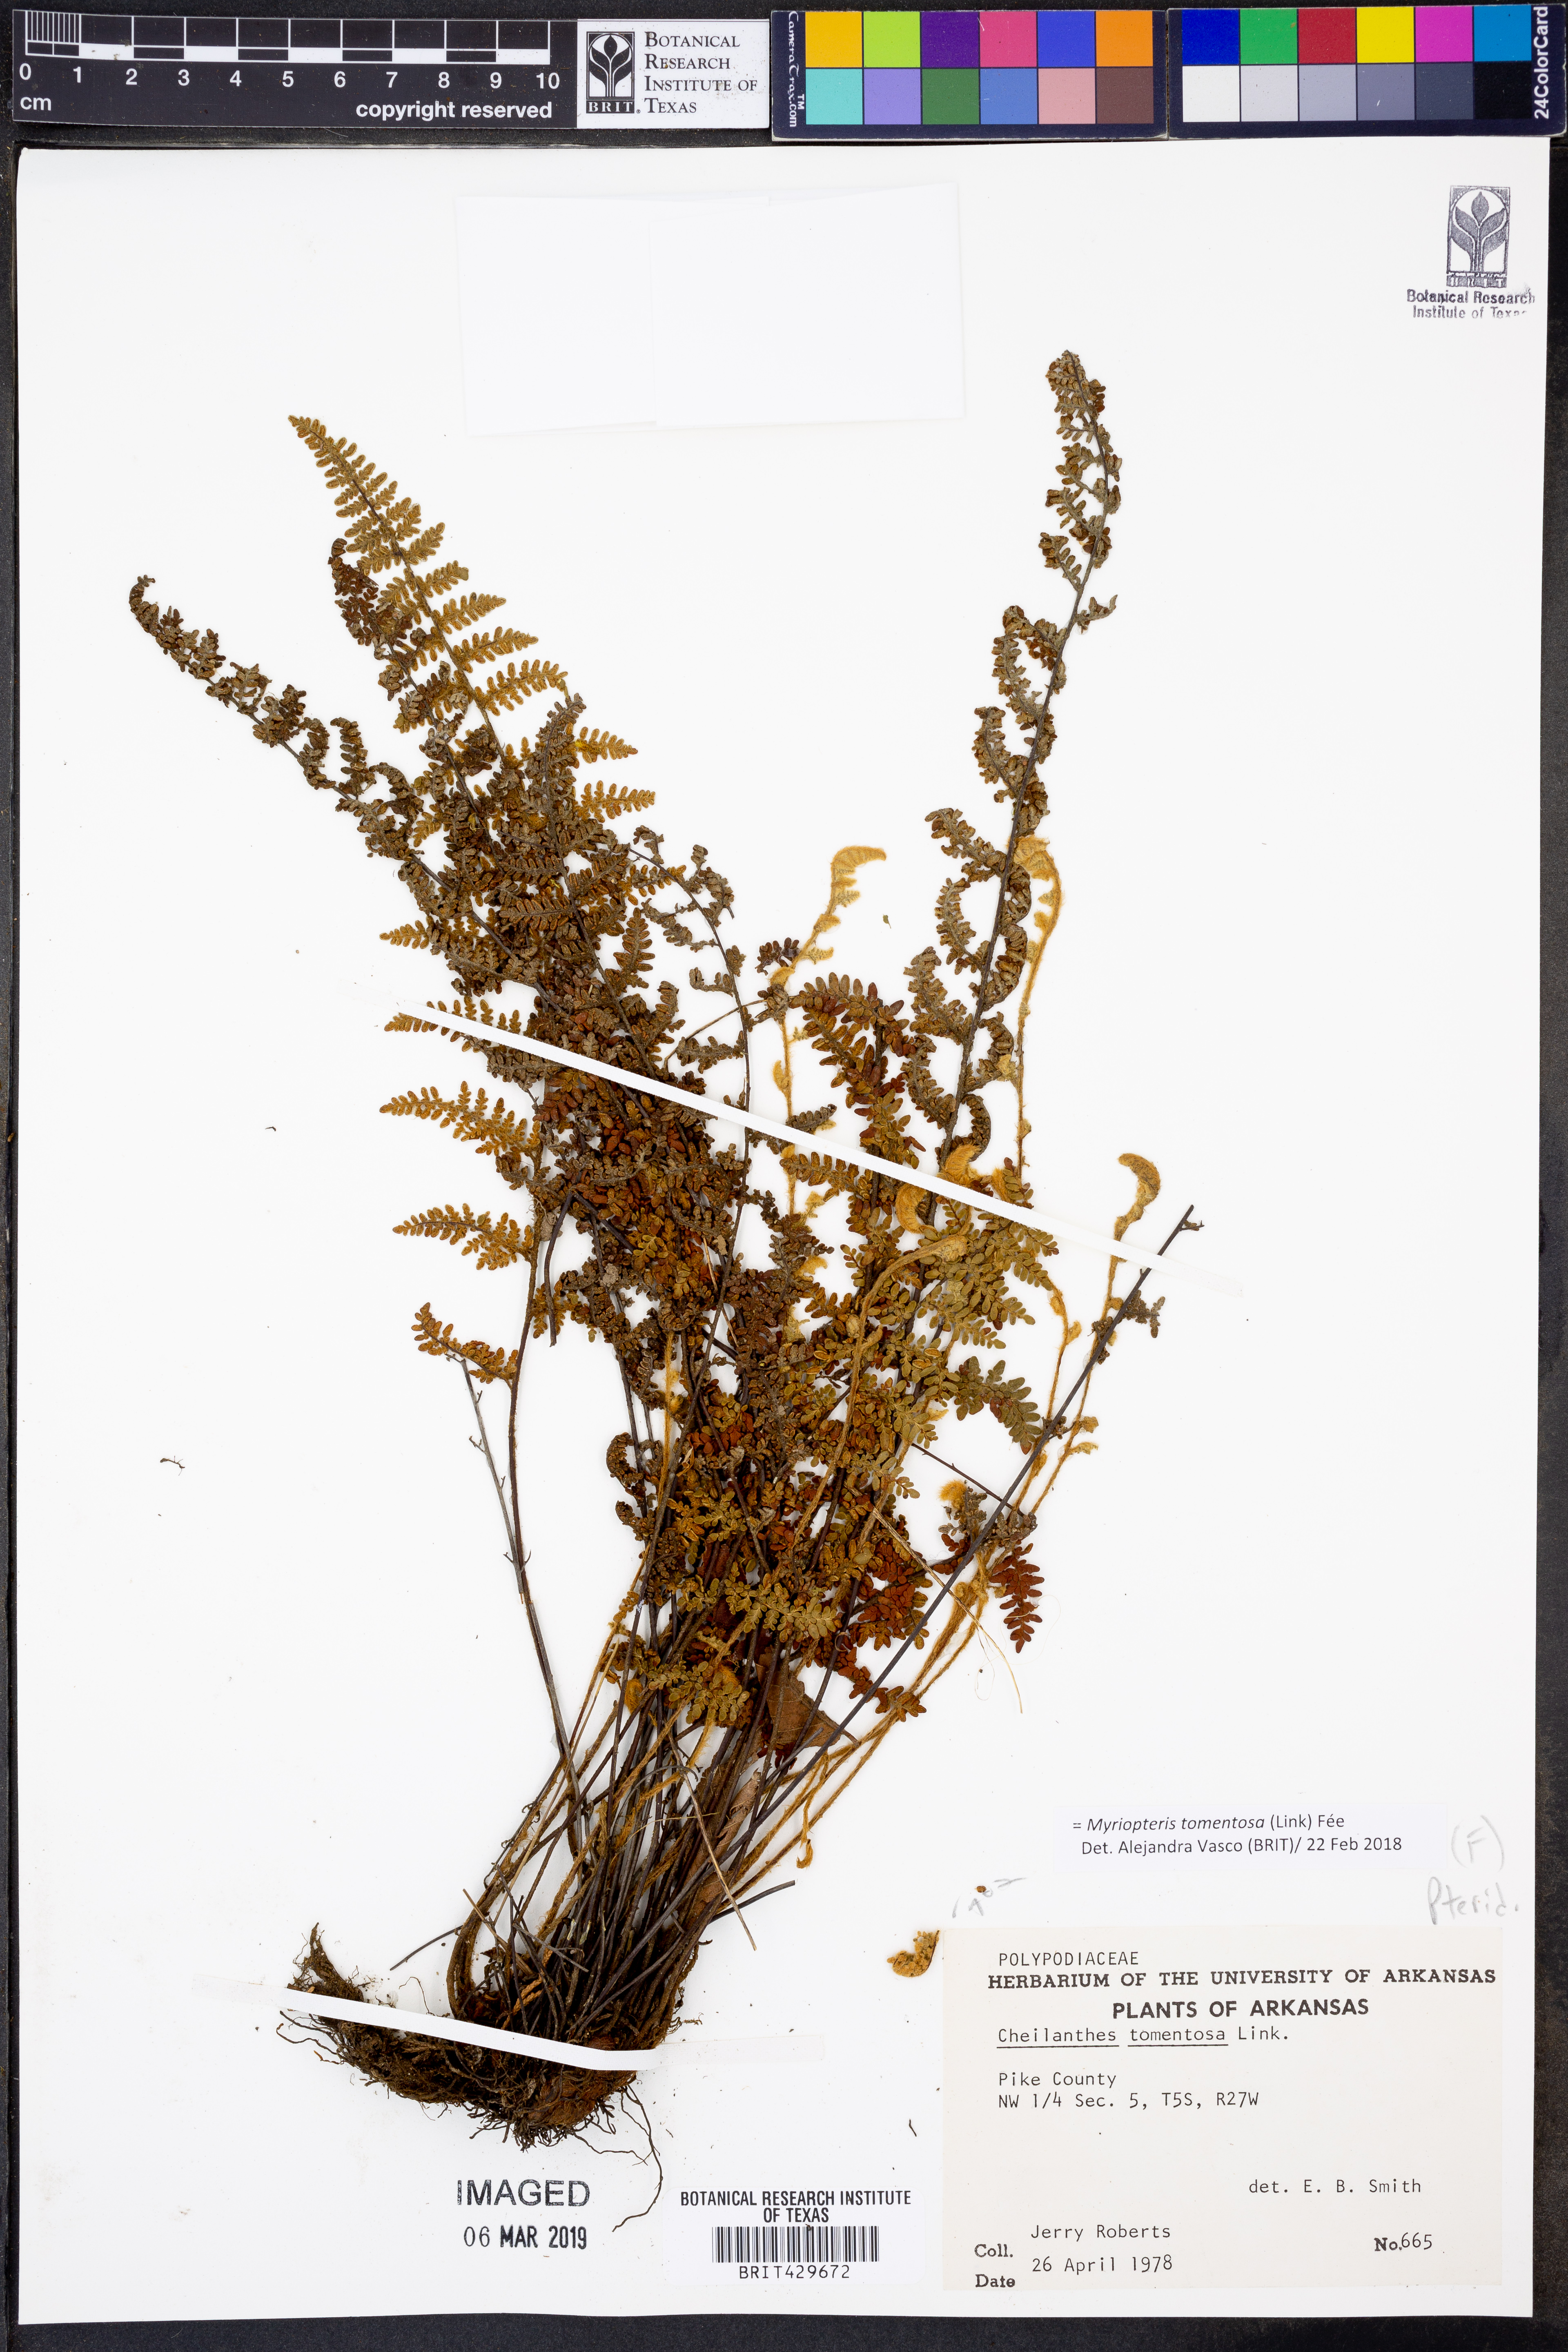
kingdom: Plantae
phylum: Tracheophyta
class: Polypodiopsida
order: Polypodiales
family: Pteridaceae
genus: Myriopteris
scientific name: Myriopteris tomentosa
